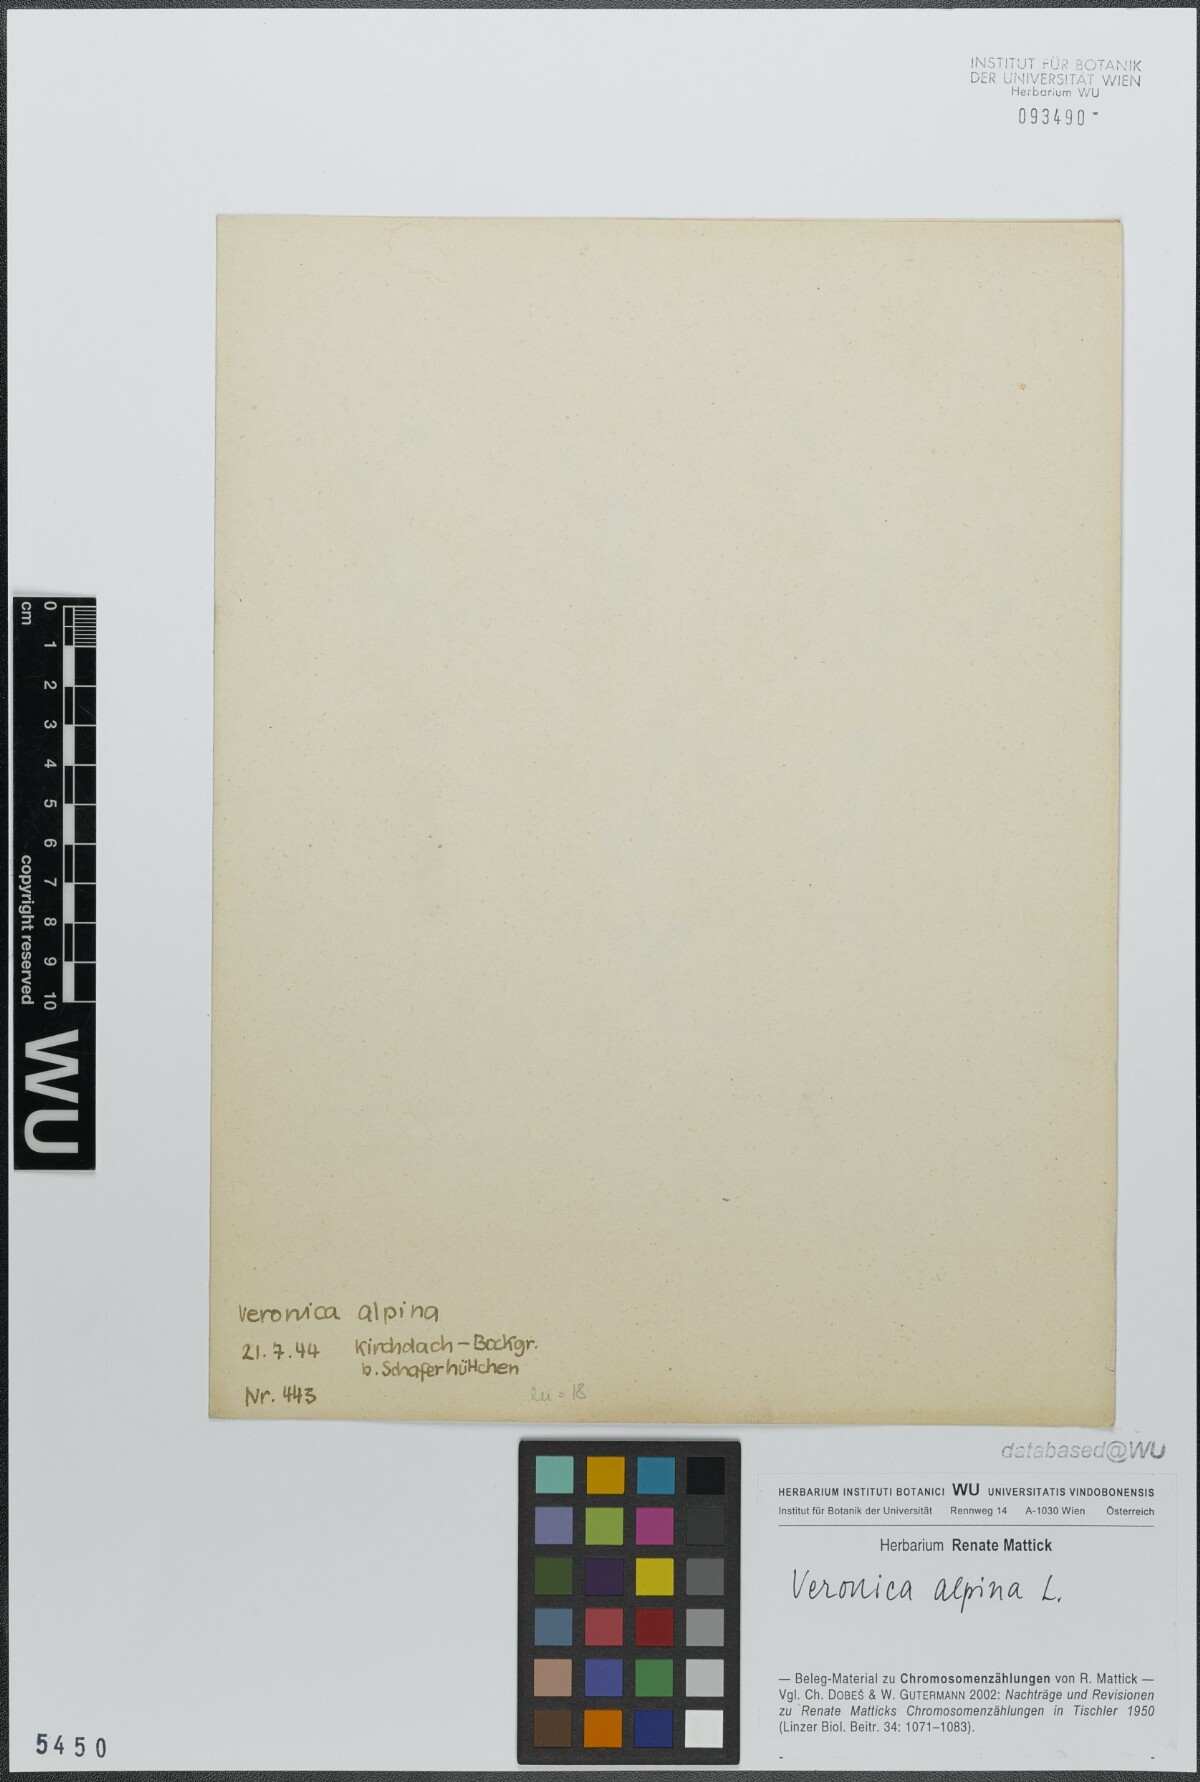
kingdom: Plantae
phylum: Tracheophyta
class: Magnoliopsida
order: Lamiales
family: Plantaginaceae
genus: Veronica
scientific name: Veronica alpina
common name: Alpine speedwell
